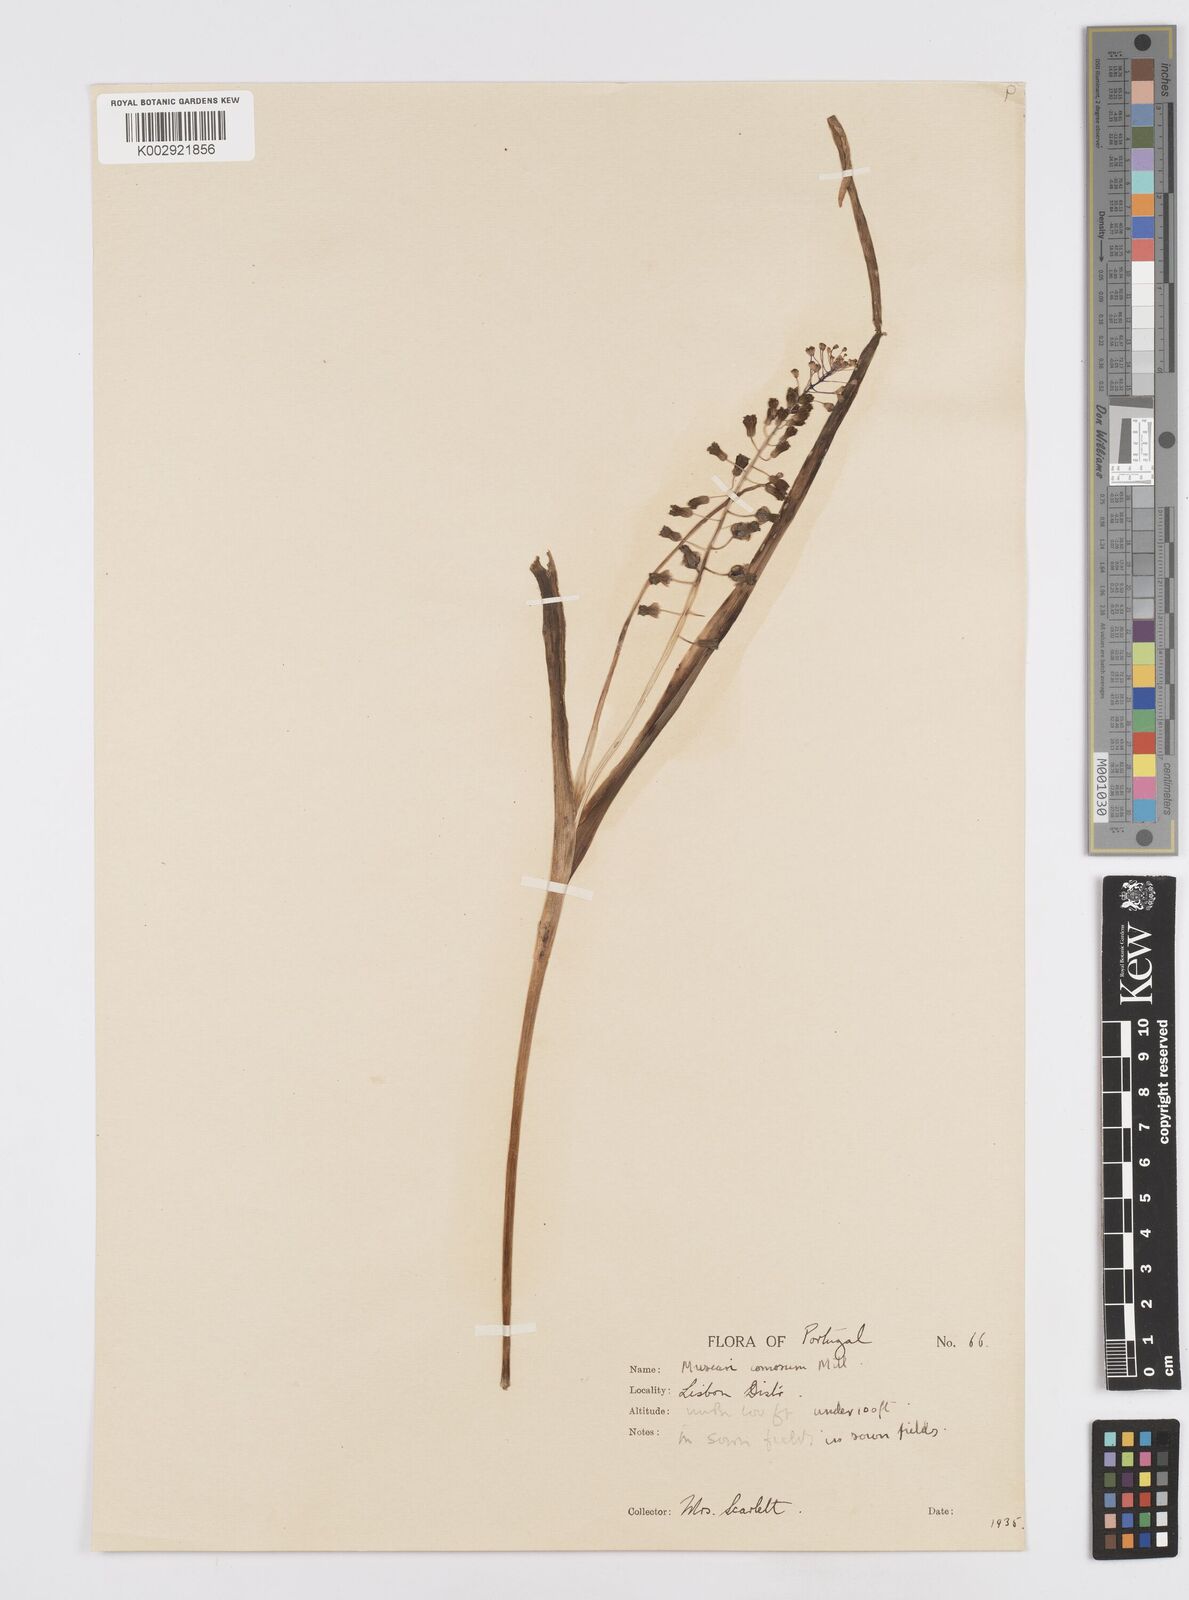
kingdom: Plantae
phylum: Tracheophyta
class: Liliopsida
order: Asparagales
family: Asparagaceae
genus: Muscari
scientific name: Muscari comosum
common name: Tassel hyacinth
